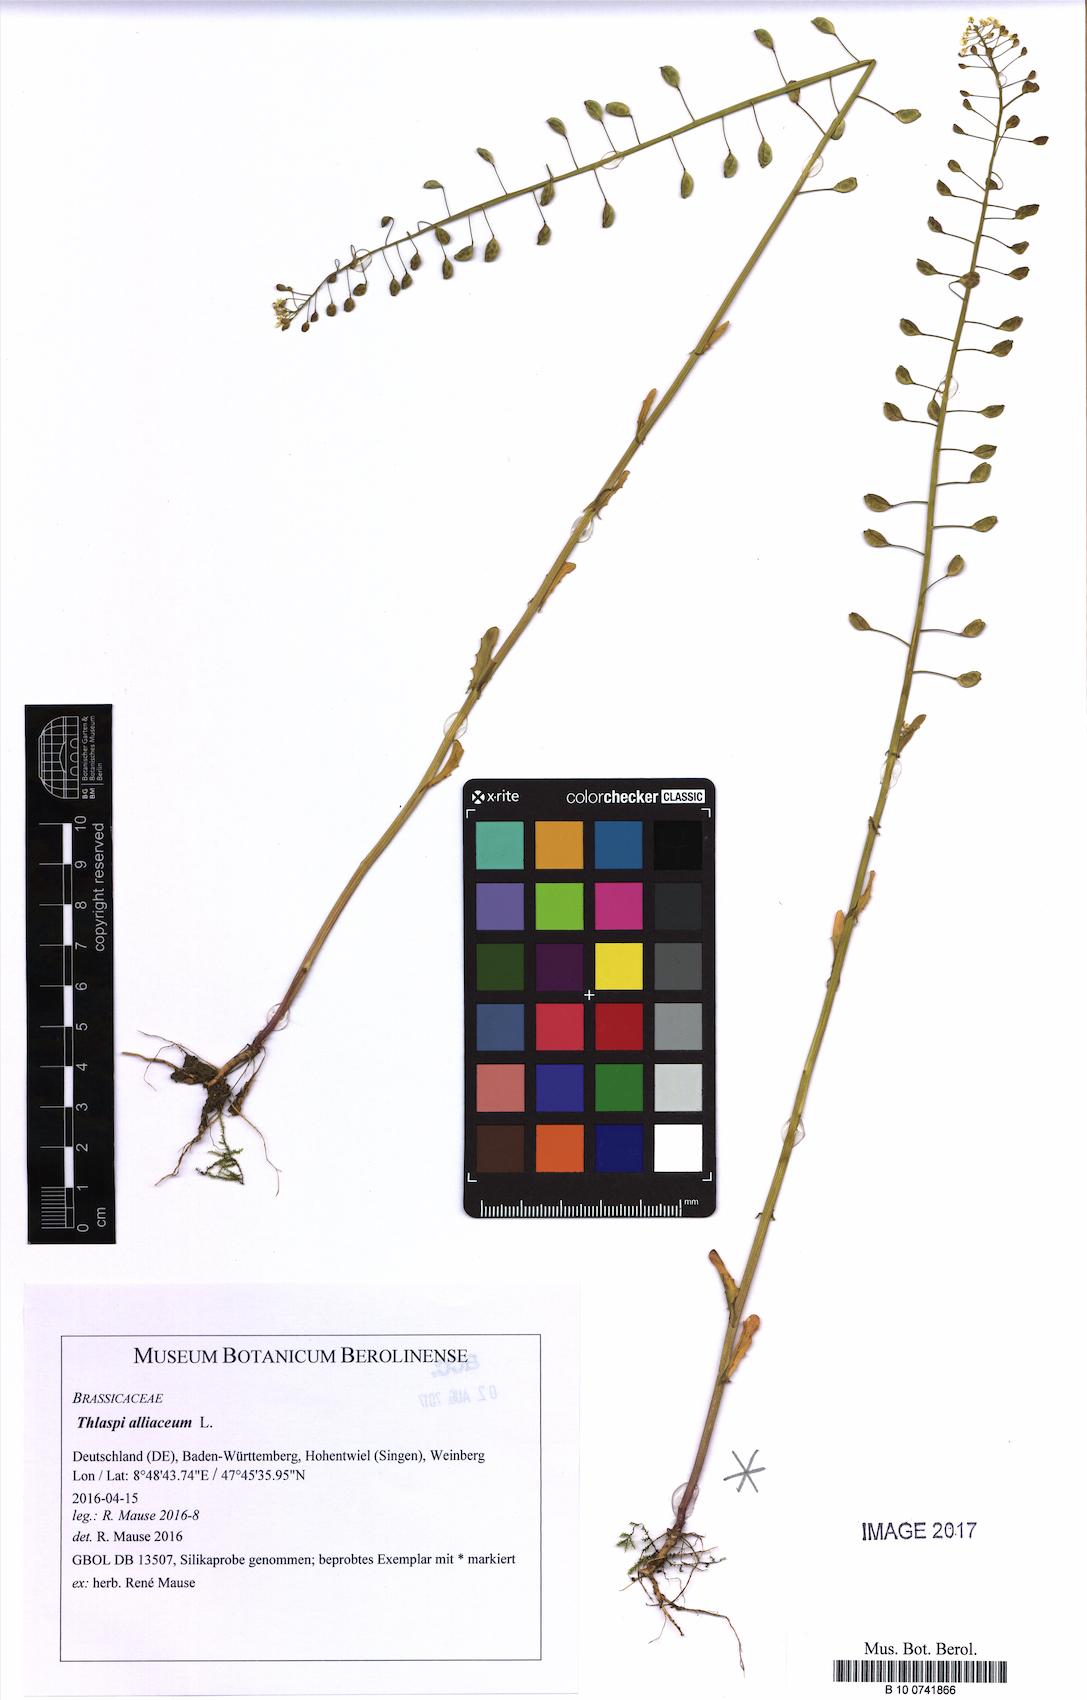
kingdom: Plantae
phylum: Tracheophyta
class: Magnoliopsida
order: Brassicales
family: Brassicaceae
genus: Mummenhoffia
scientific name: Mummenhoffia alliacea
